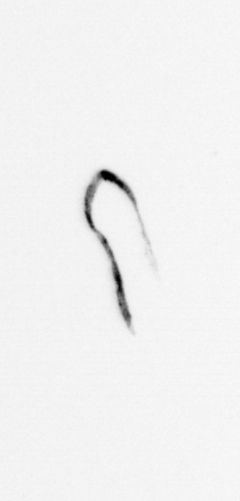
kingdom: Bacteria
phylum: Cyanobacteria
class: Cyanobacteriia
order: Cyanobacteriales
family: Microcoleaceae
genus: Trichodesmium
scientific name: Trichodesmium
